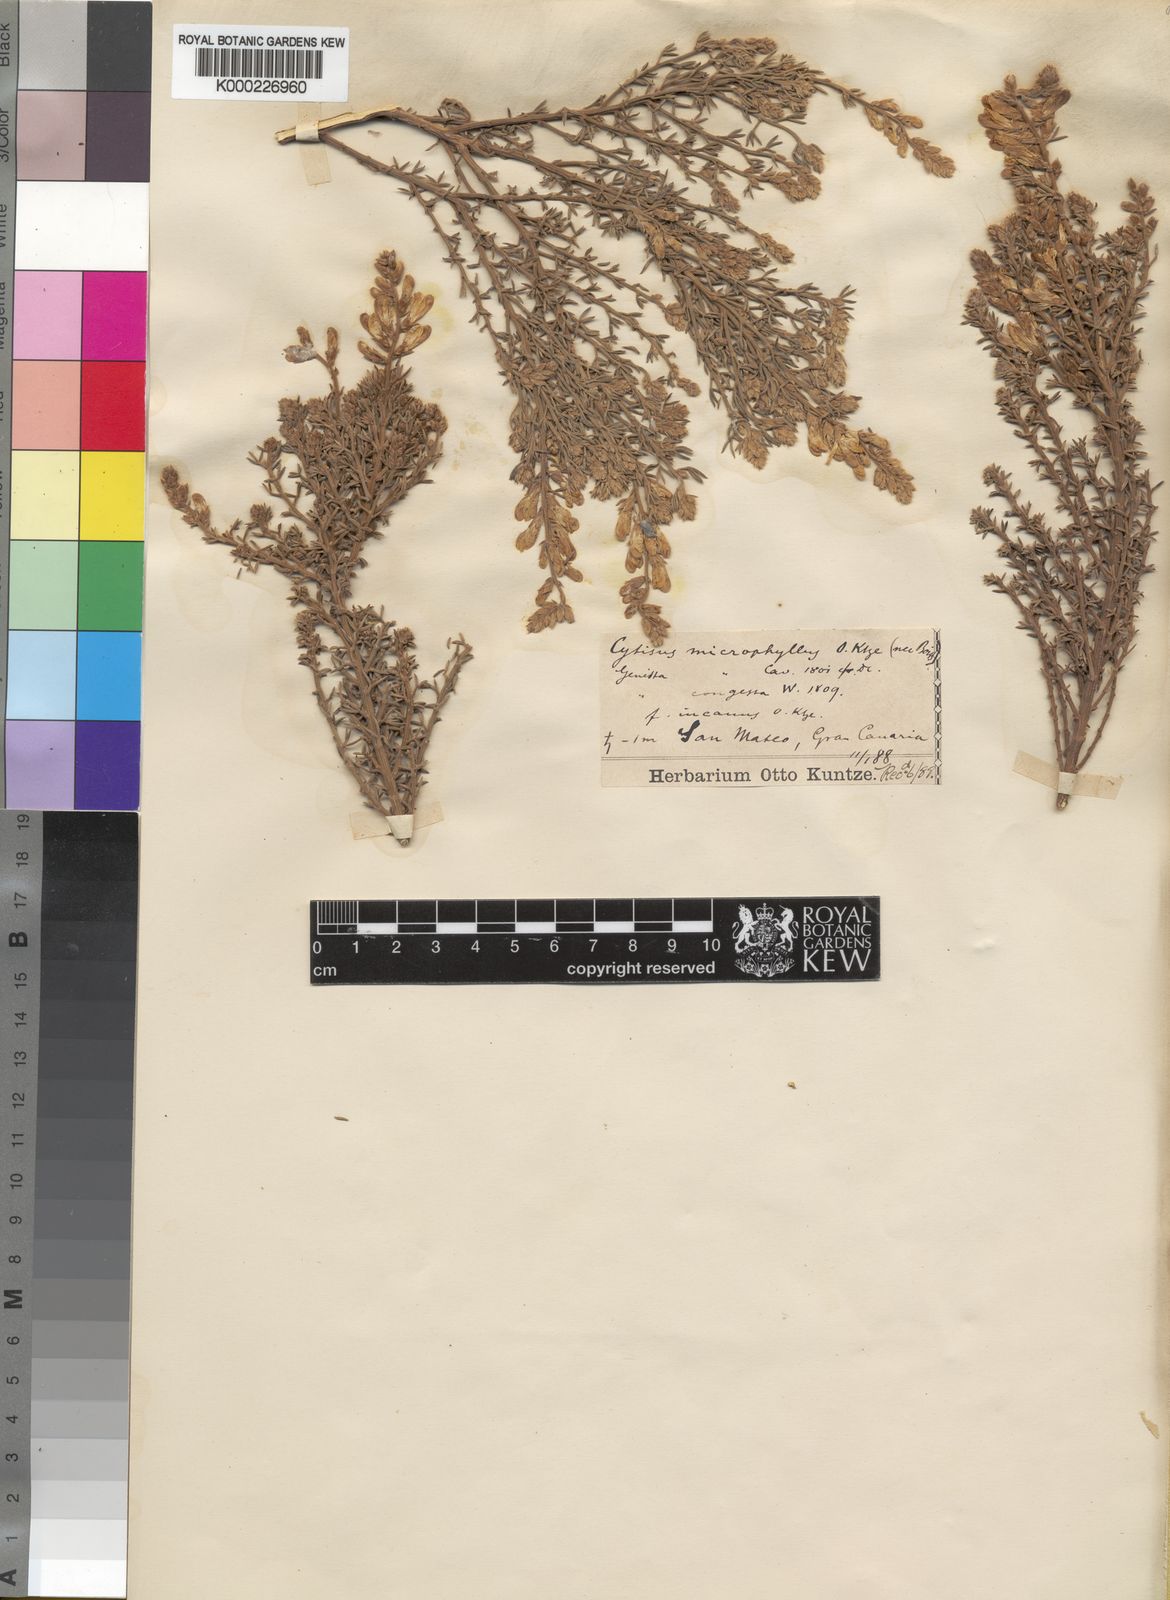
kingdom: Plantae
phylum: Tracheophyta
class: Magnoliopsida
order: Fabales
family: Fabaceae
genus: Genista
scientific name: Genista microphylla
